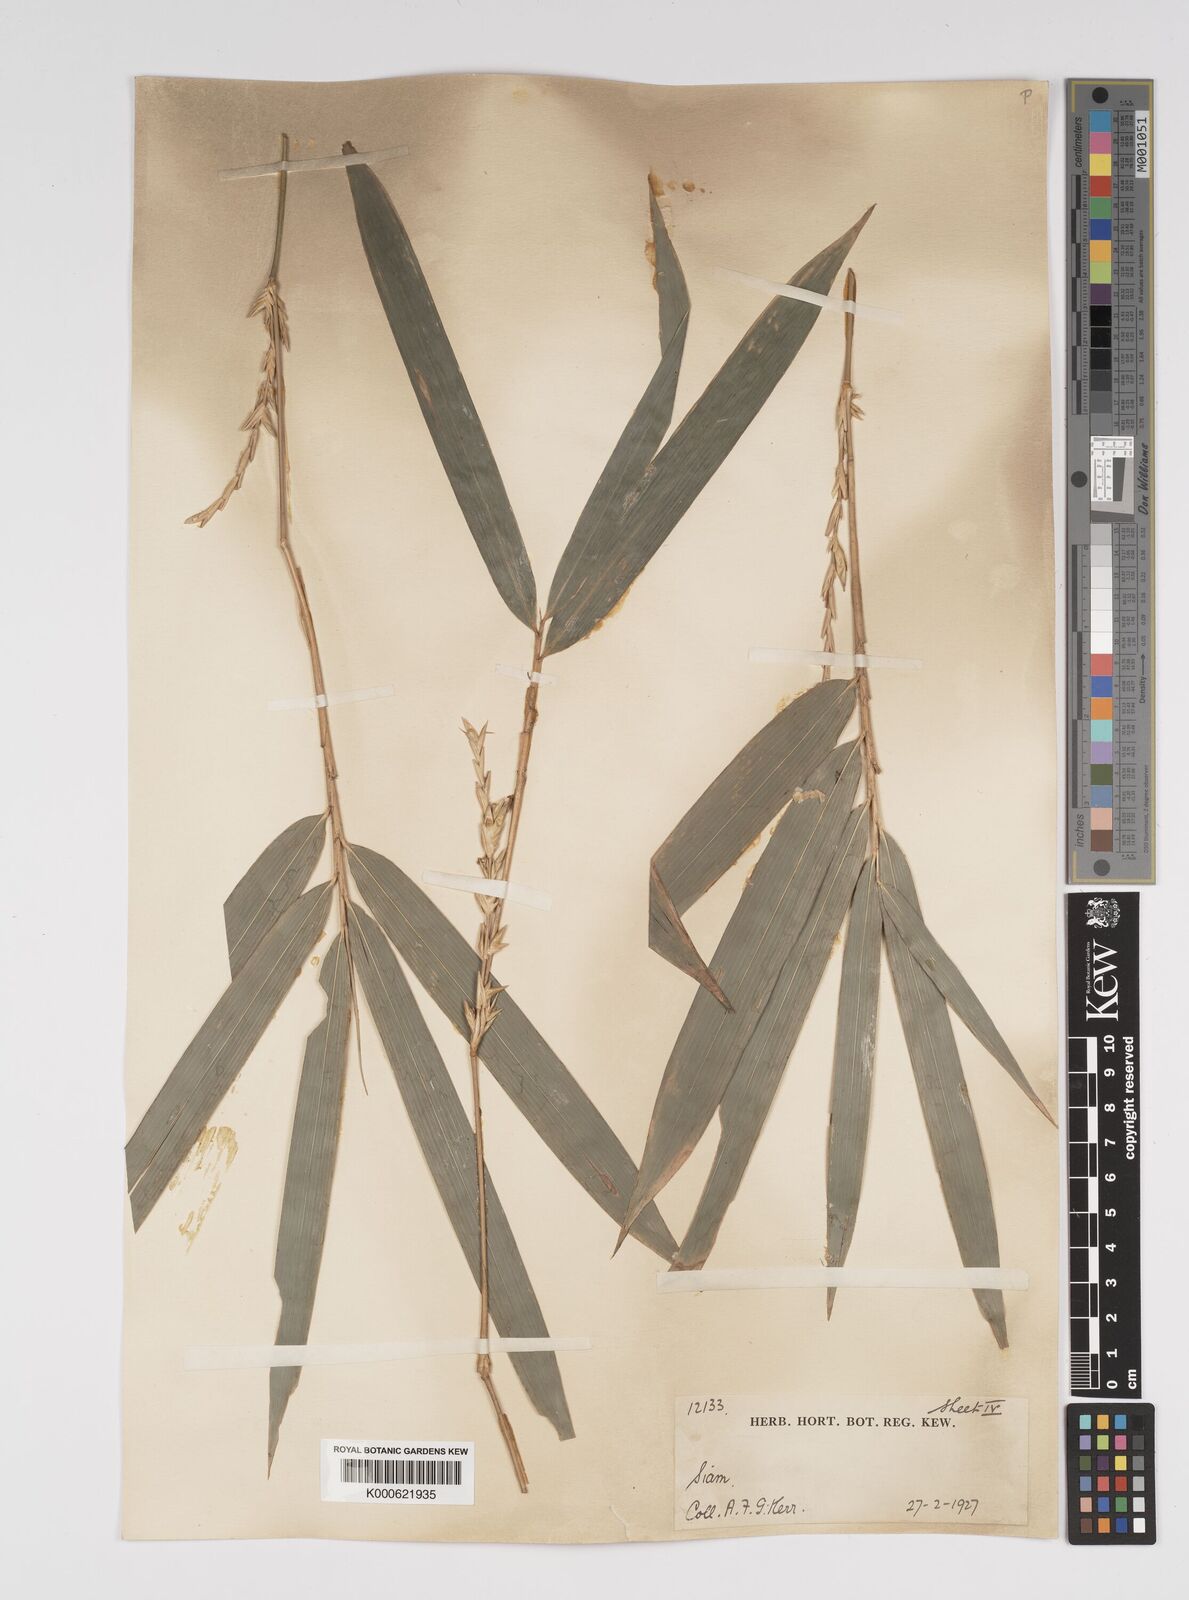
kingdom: Plantae
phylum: Tracheophyta
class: Liliopsida
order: Poales
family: Poaceae
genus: Bambusa
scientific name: Bambusa
